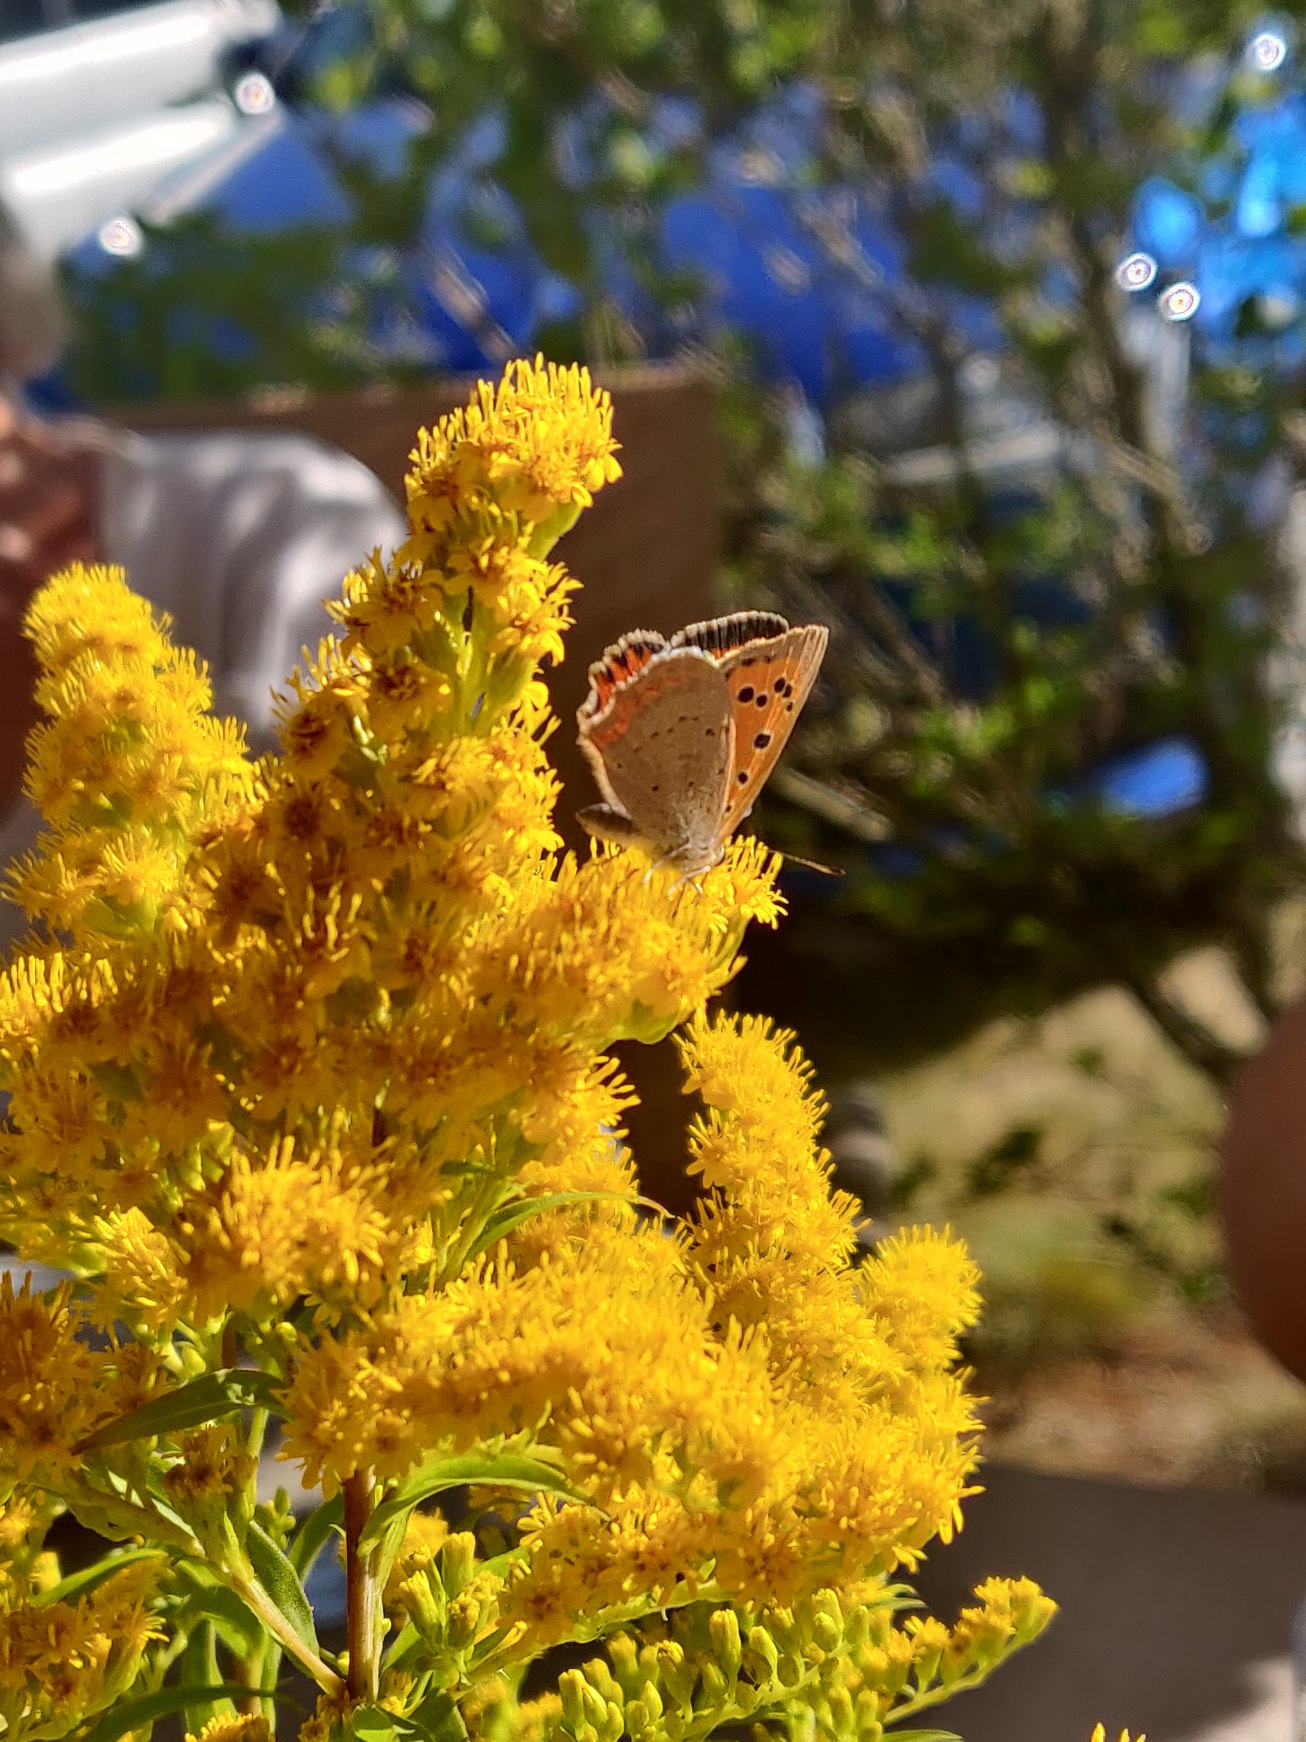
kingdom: Animalia
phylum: Arthropoda
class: Insecta
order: Lepidoptera
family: Lycaenidae
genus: Lycaena
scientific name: Lycaena phlaeas
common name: Lille ildfugl
